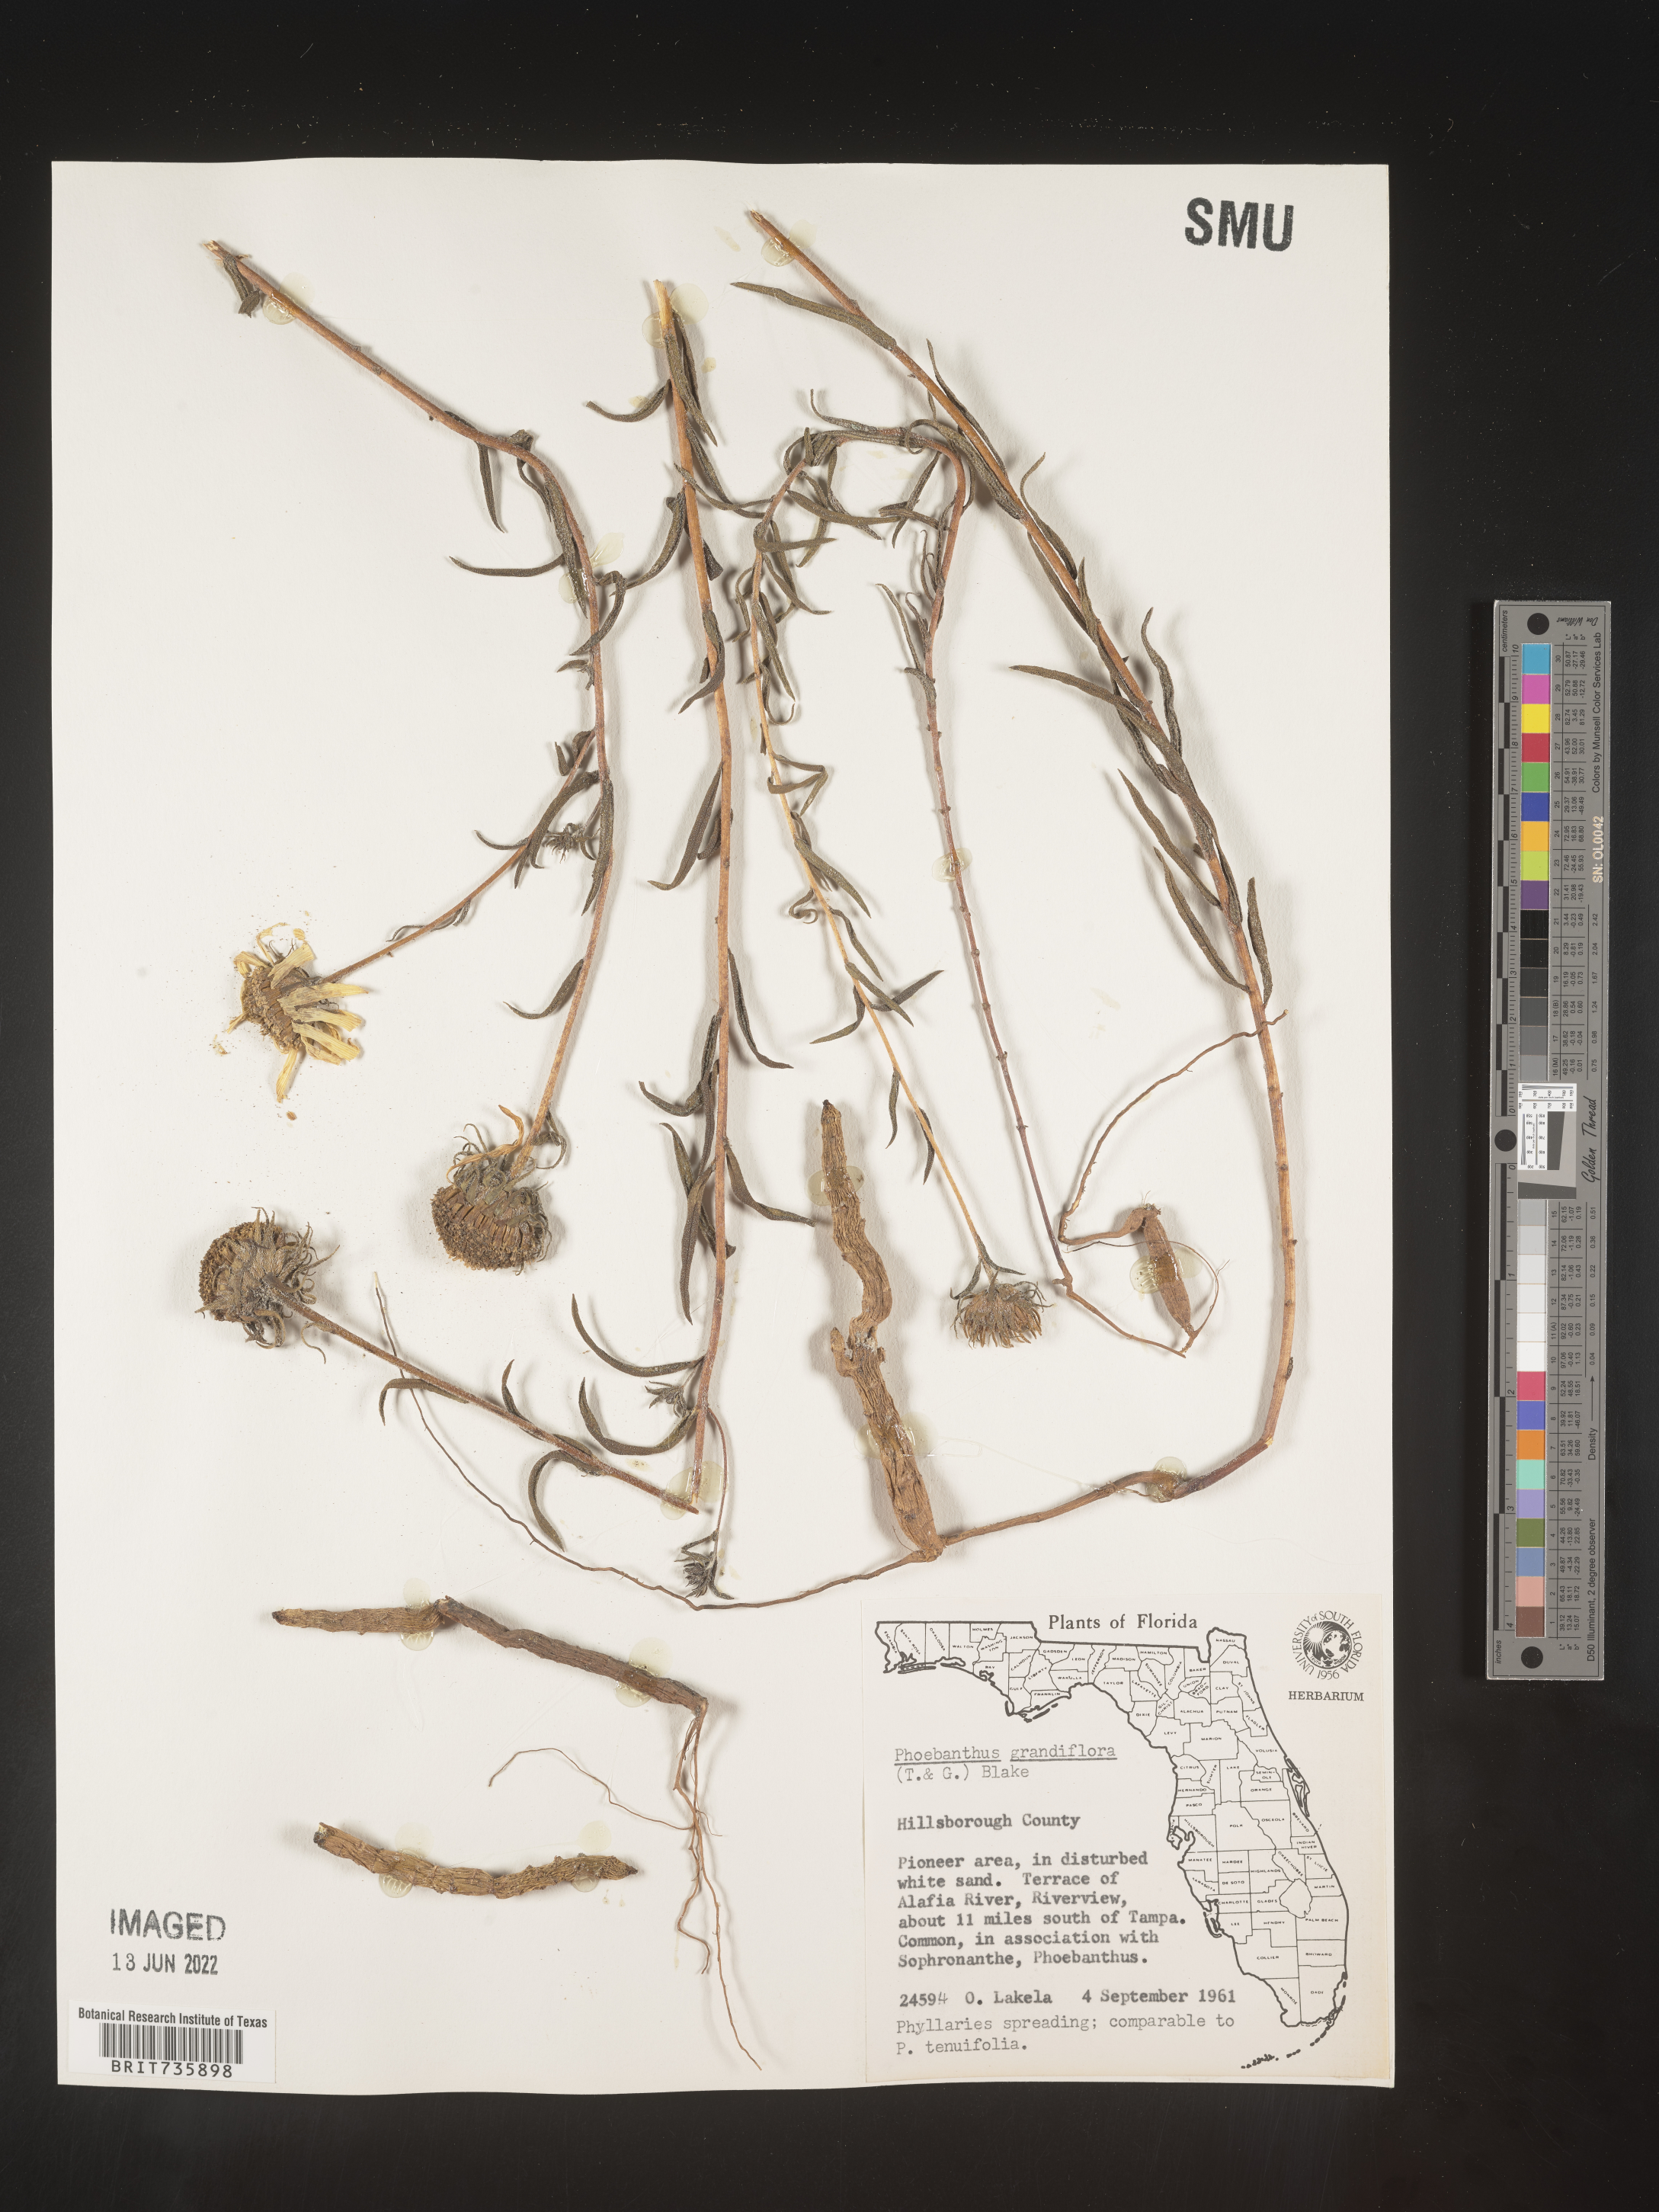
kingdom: Plantae
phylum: Tracheophyta
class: Magnoliopsida
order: Asterales
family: Asteraceae
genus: Phoebanthus
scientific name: Phoebanthus grandiflora
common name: Florida false sunflower
